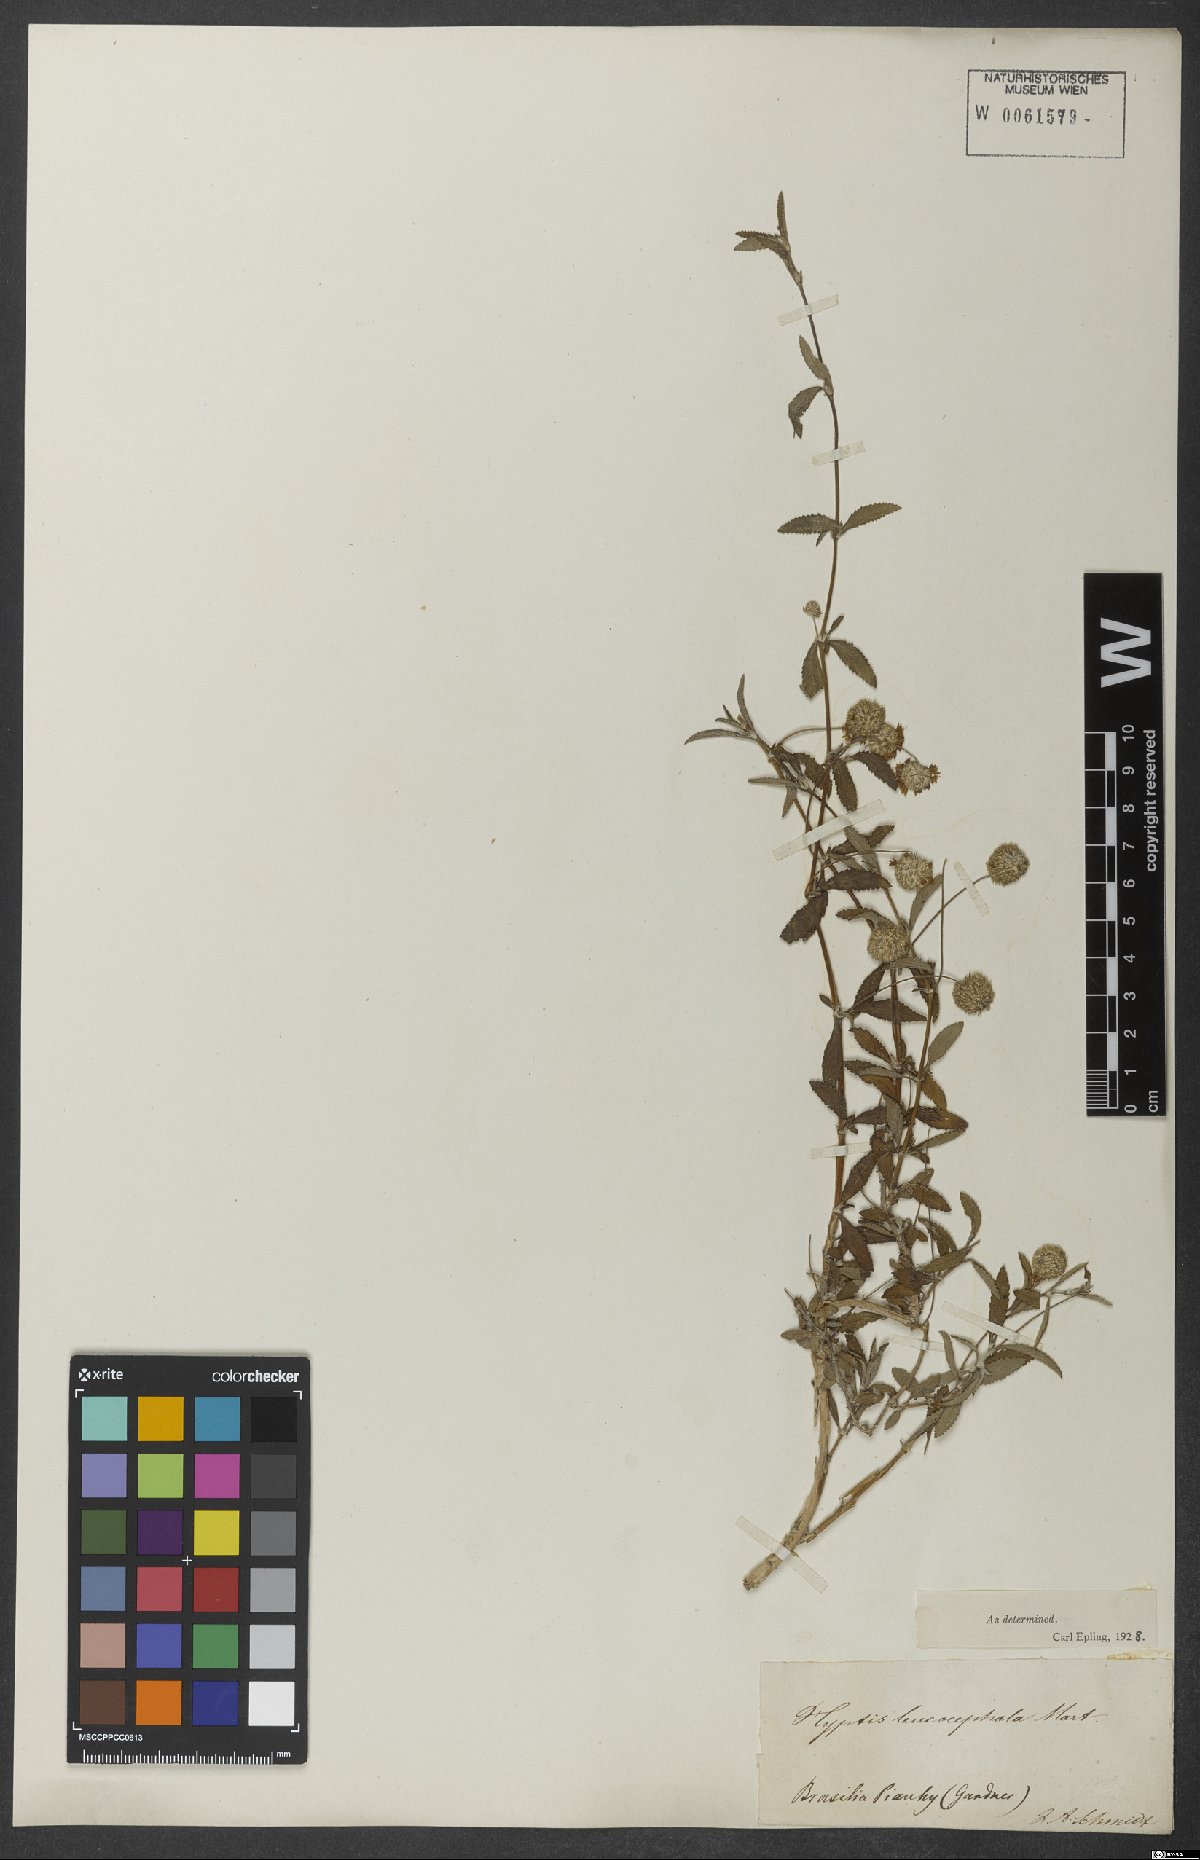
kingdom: Plantae
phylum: Tracheophyta
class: Magnoliopsida
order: Lamiales
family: Lamiaceae
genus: Martianthus
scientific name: Martianthus leucocephalus
